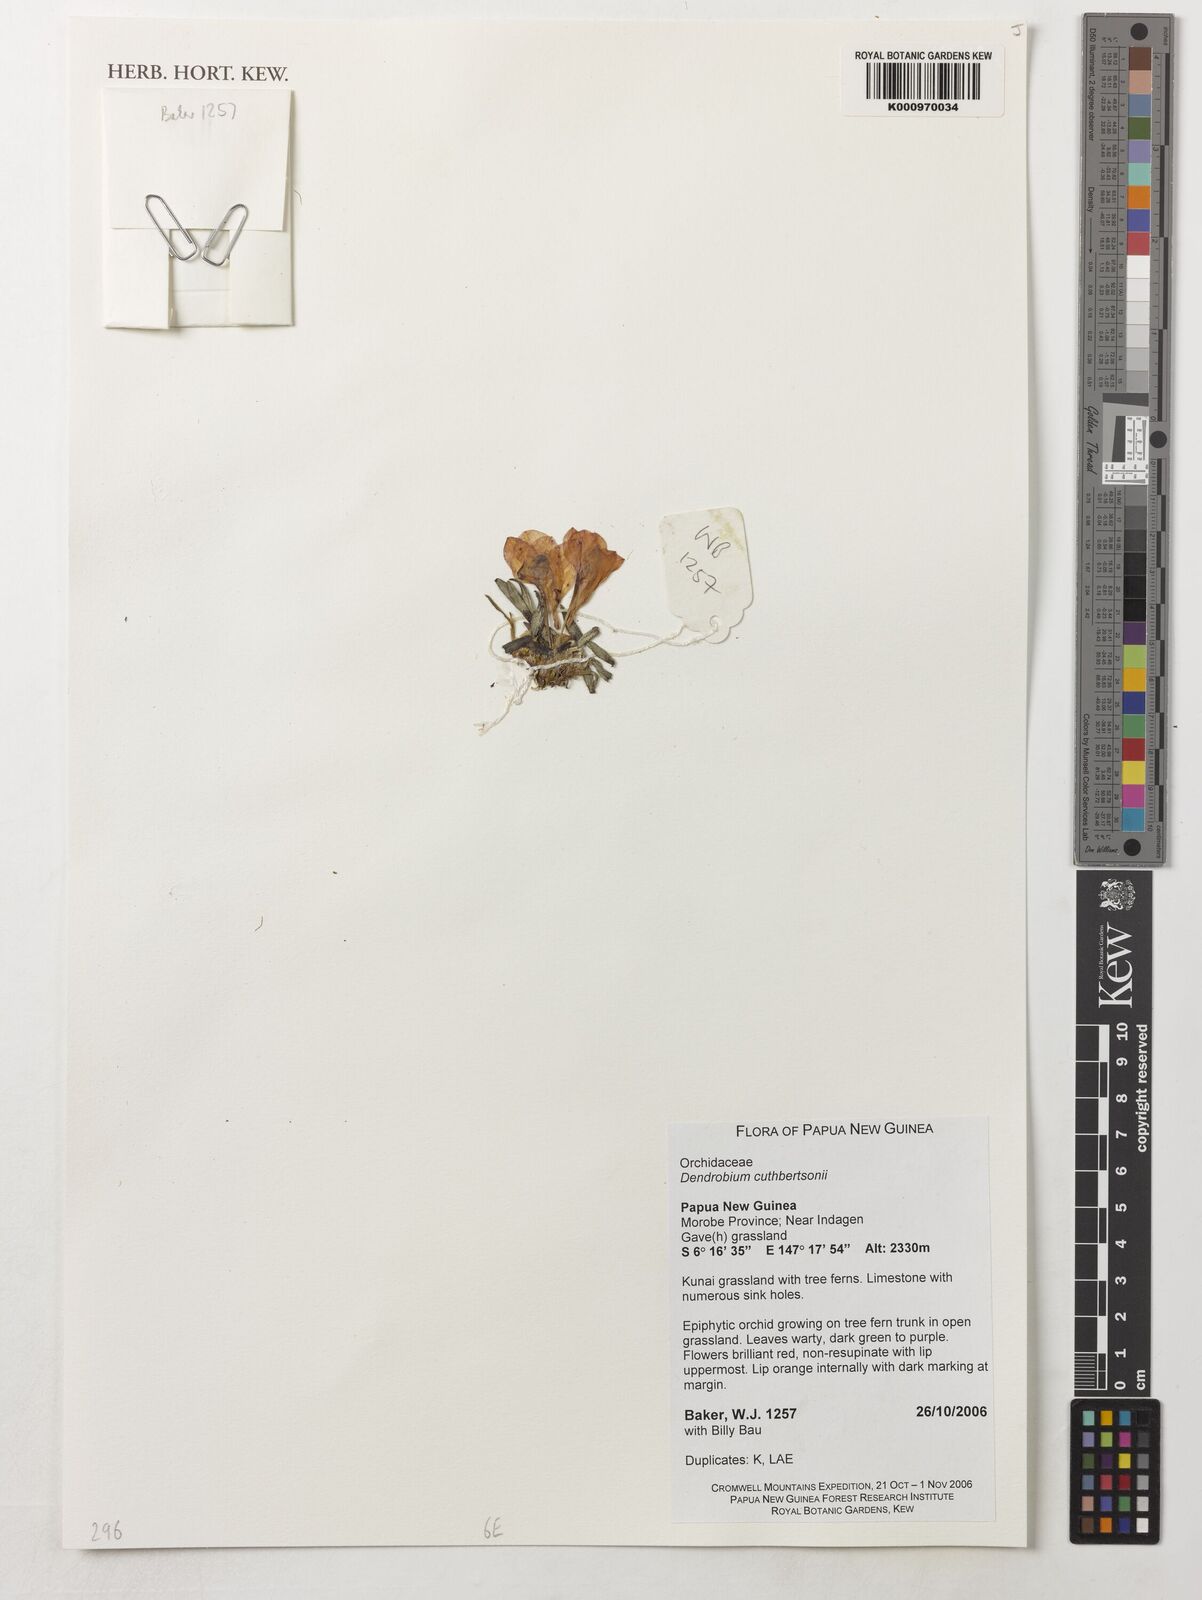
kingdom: Plantae
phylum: Tracheophyta
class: Liliopsida
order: Asparagales
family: Orchidaceae
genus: Dendrobium
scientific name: Dendrobium cuthbertsonii
